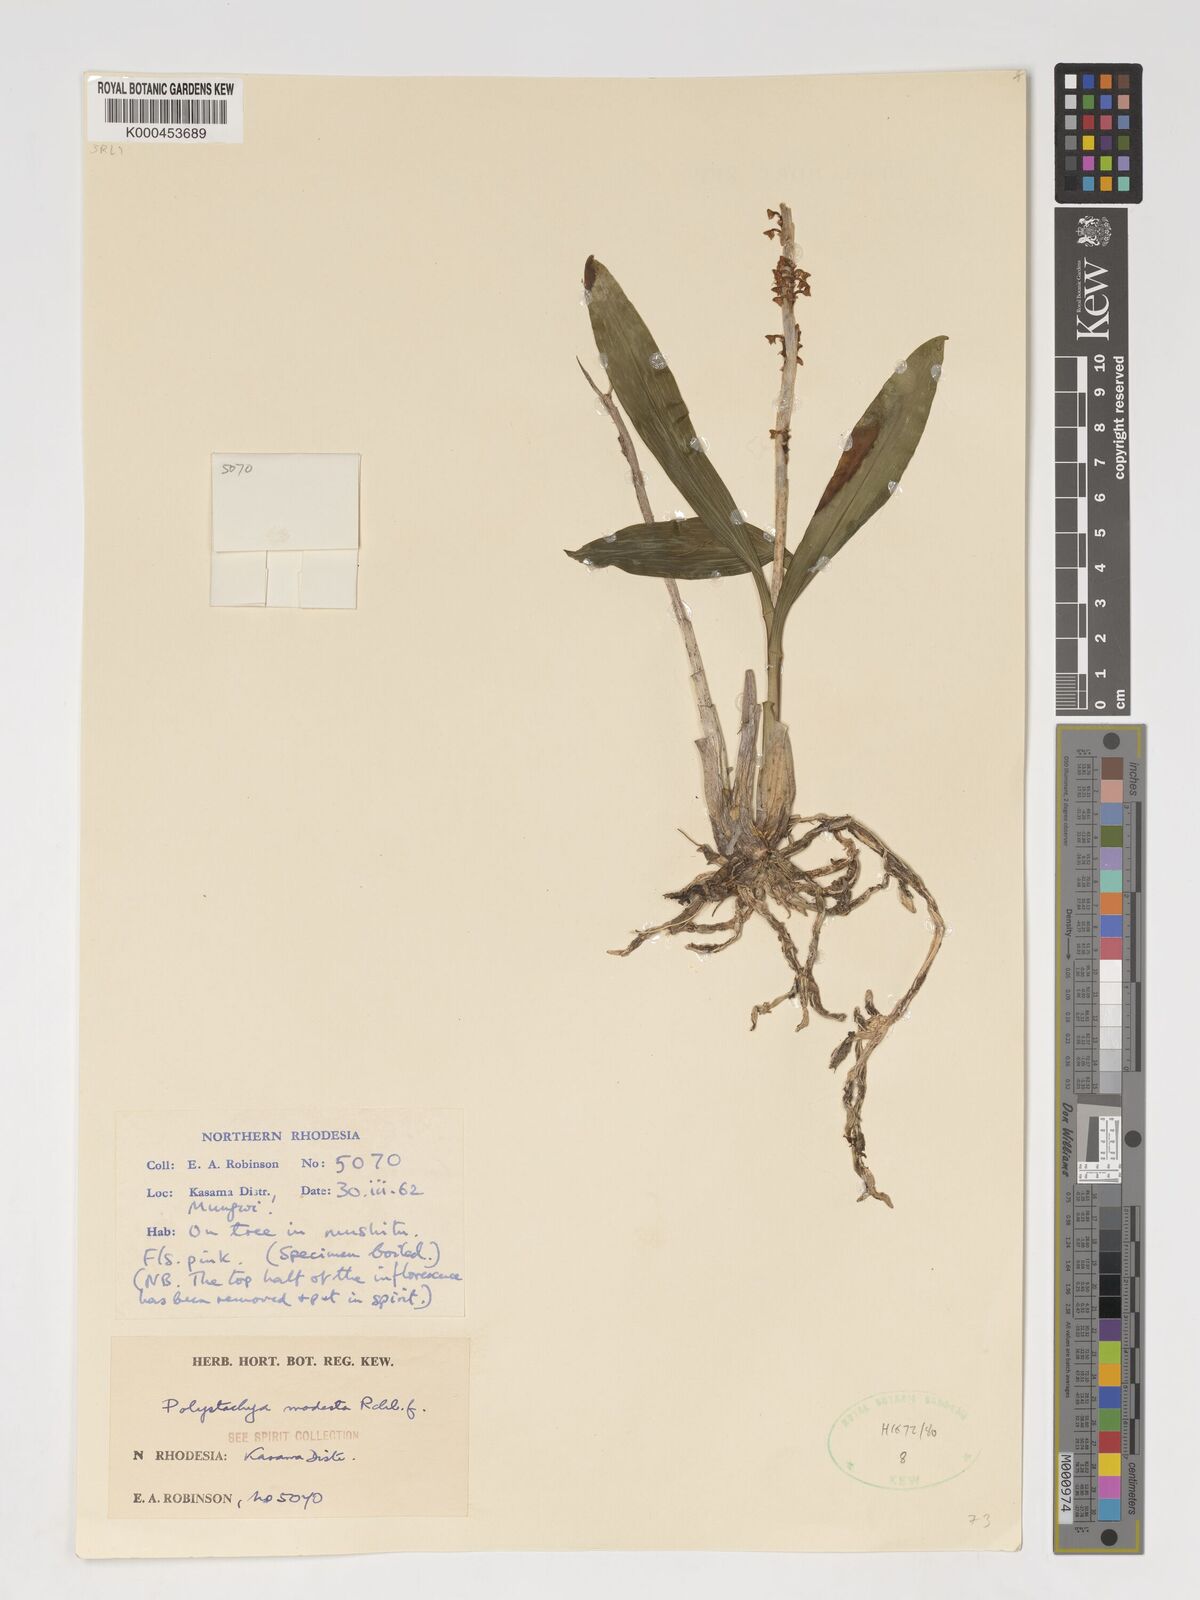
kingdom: Plantae
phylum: Tracheophyta
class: Liliopsida
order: Asparagales
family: Orchidaceae
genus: Polystachya
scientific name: Polystachya modesta
